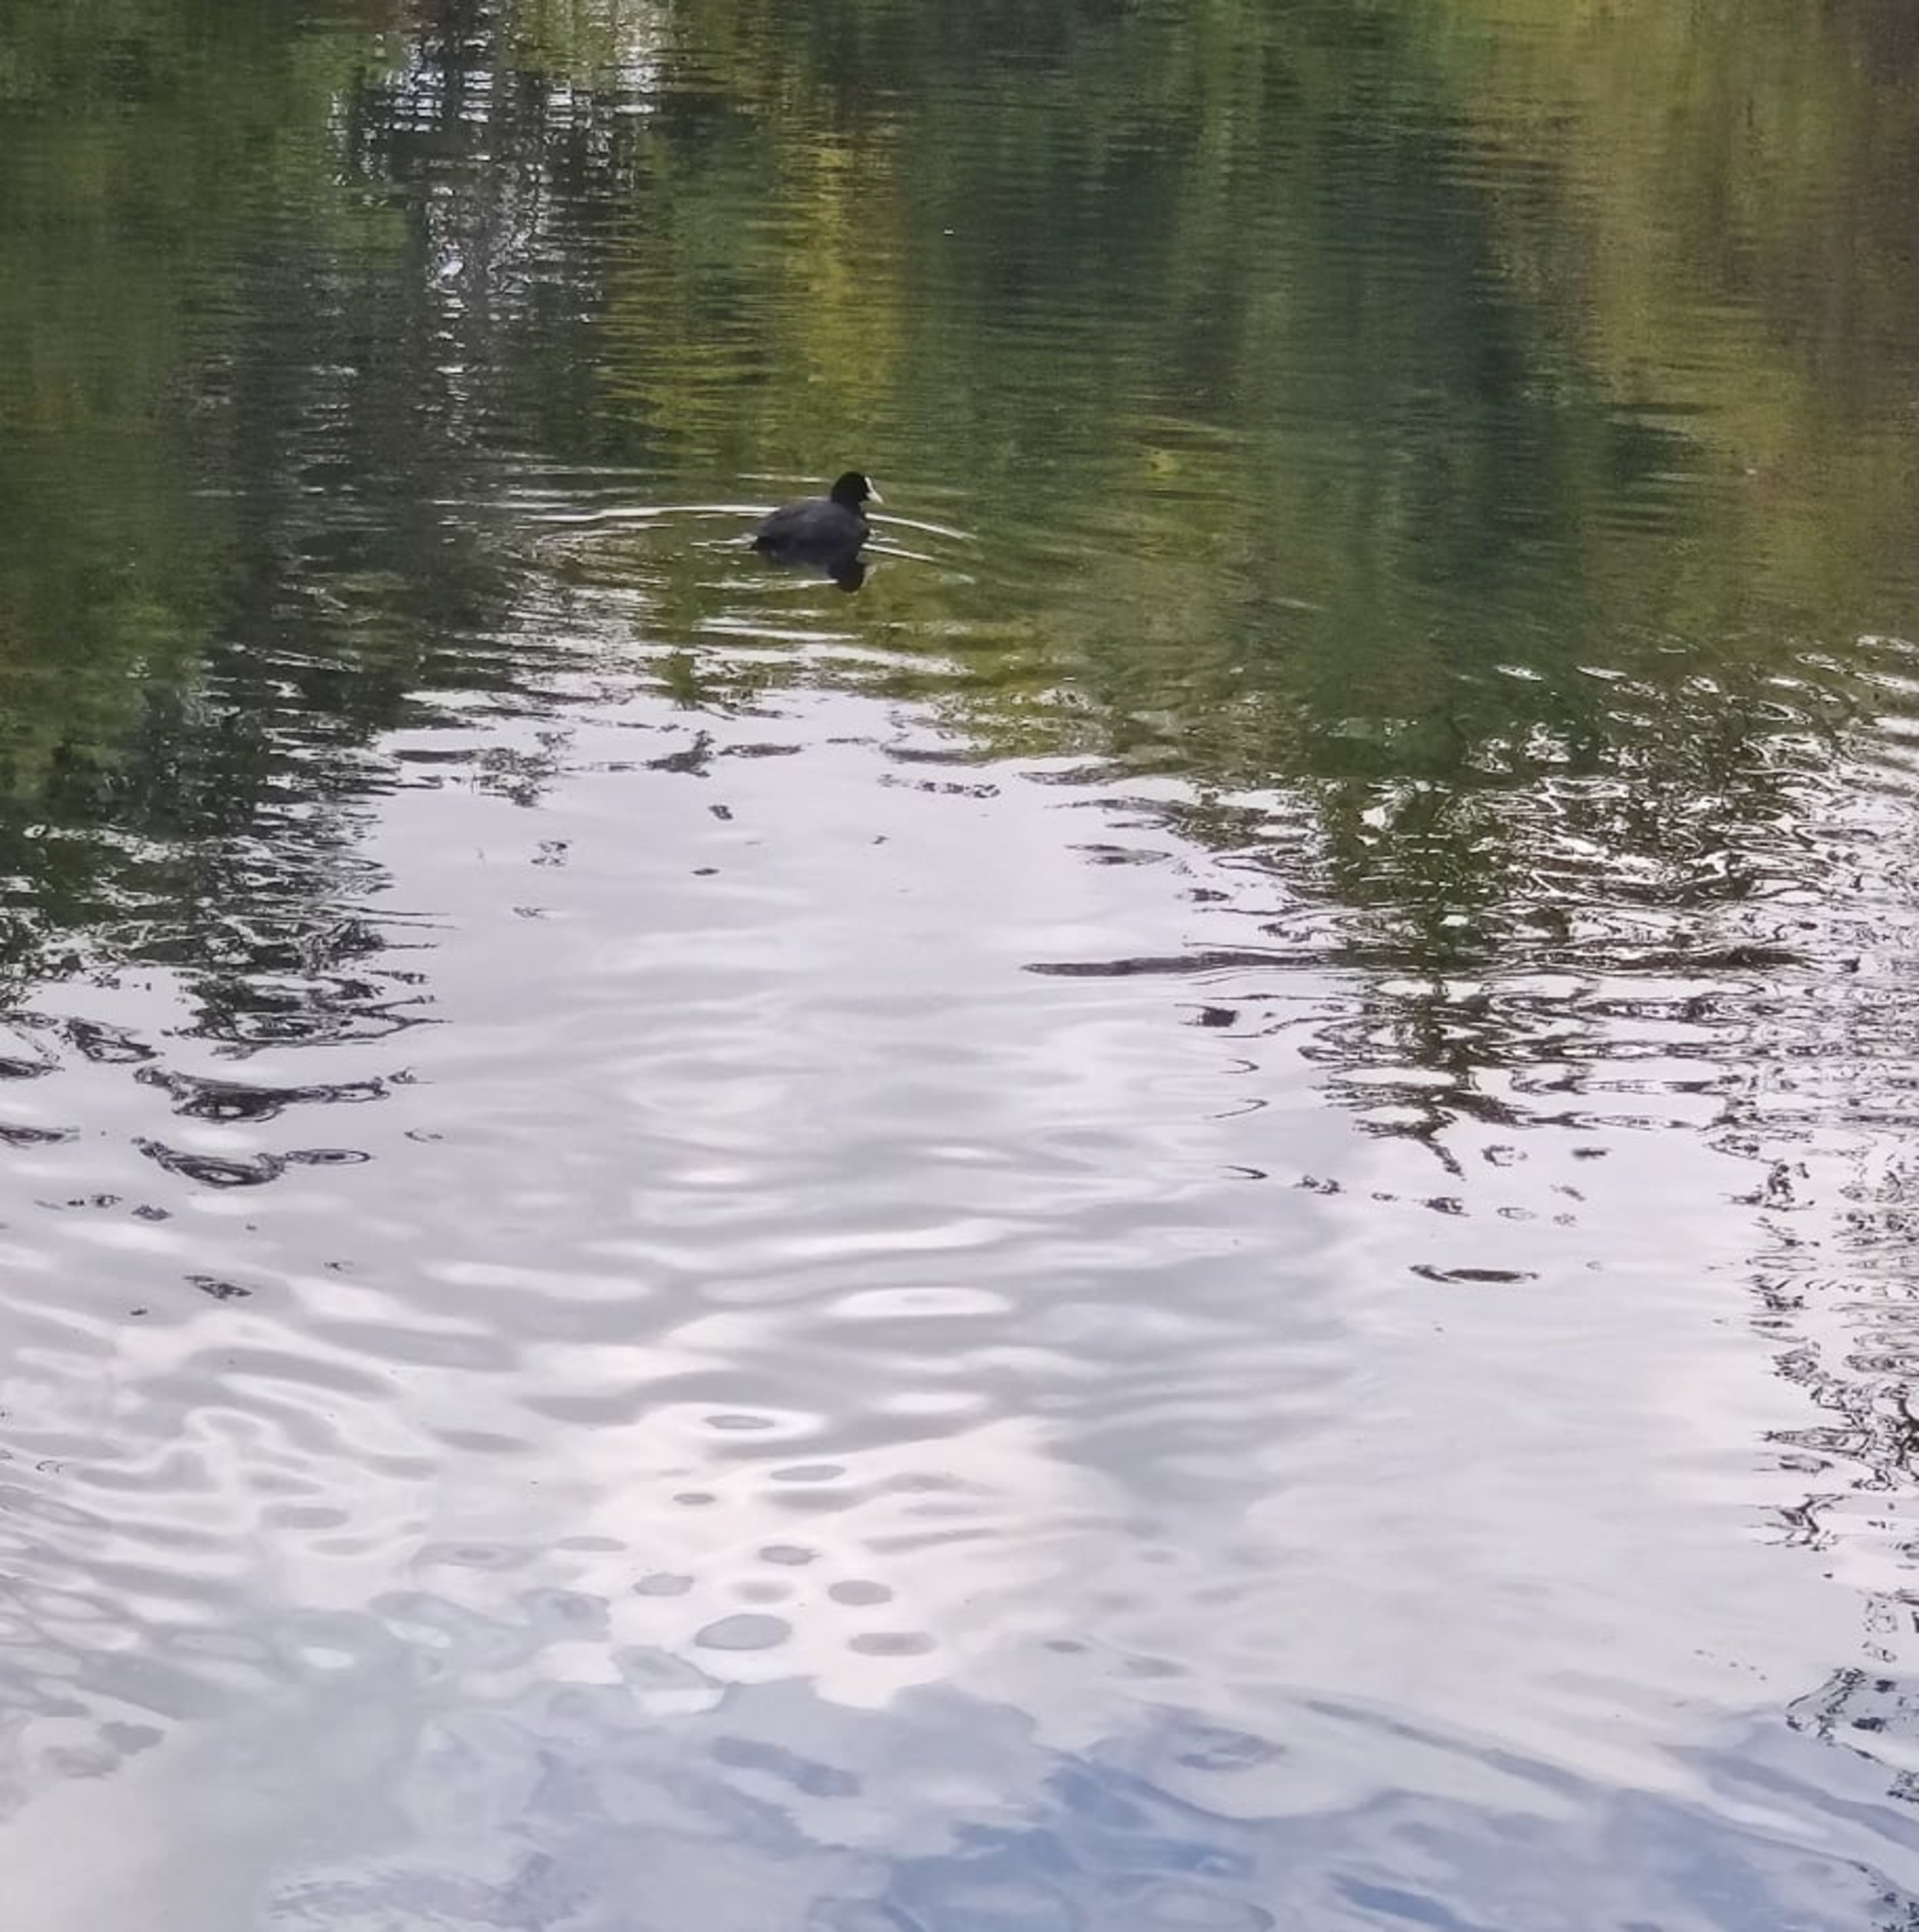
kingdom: Animalia
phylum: Chordata
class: Aves
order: Gruiformes
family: Rallidae
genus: Fulica
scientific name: Fulica atra
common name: Blishøne
